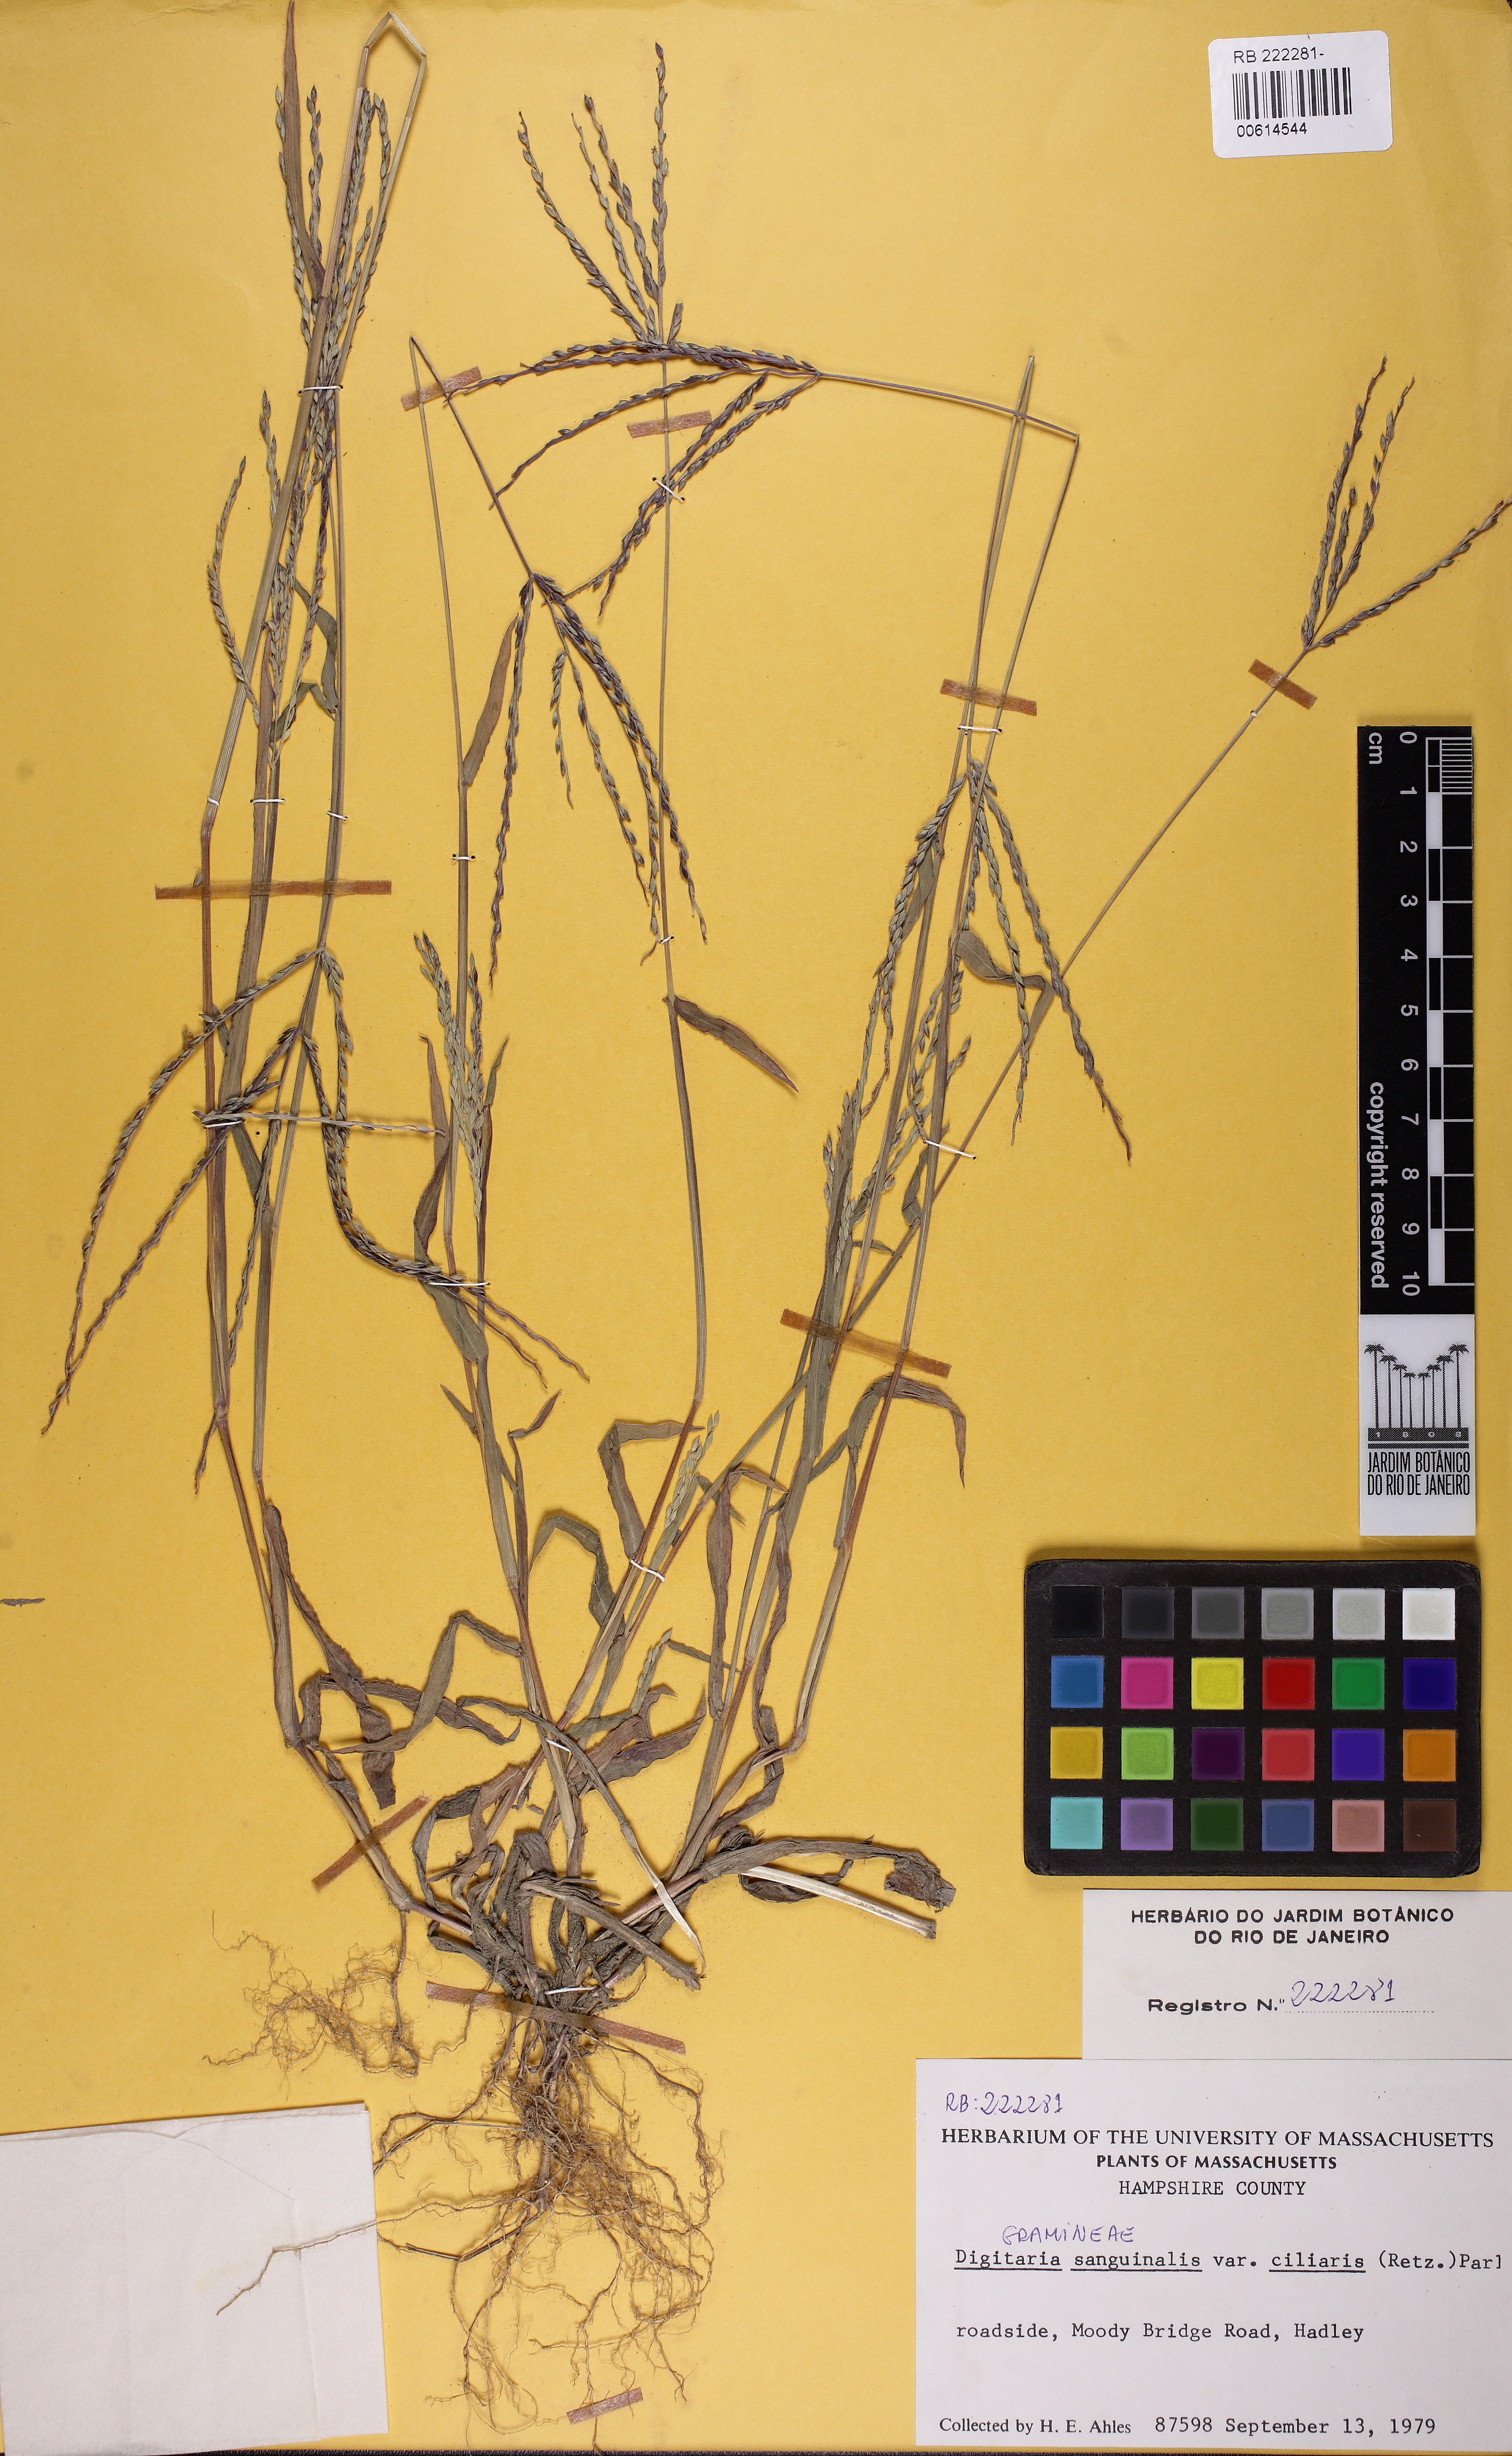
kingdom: Plantae
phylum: Tracheophyta
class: Liliopsida
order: Poales
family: Poaceae
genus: Digitaria
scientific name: Digitaria ciliaris
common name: Tropical finger-grass
